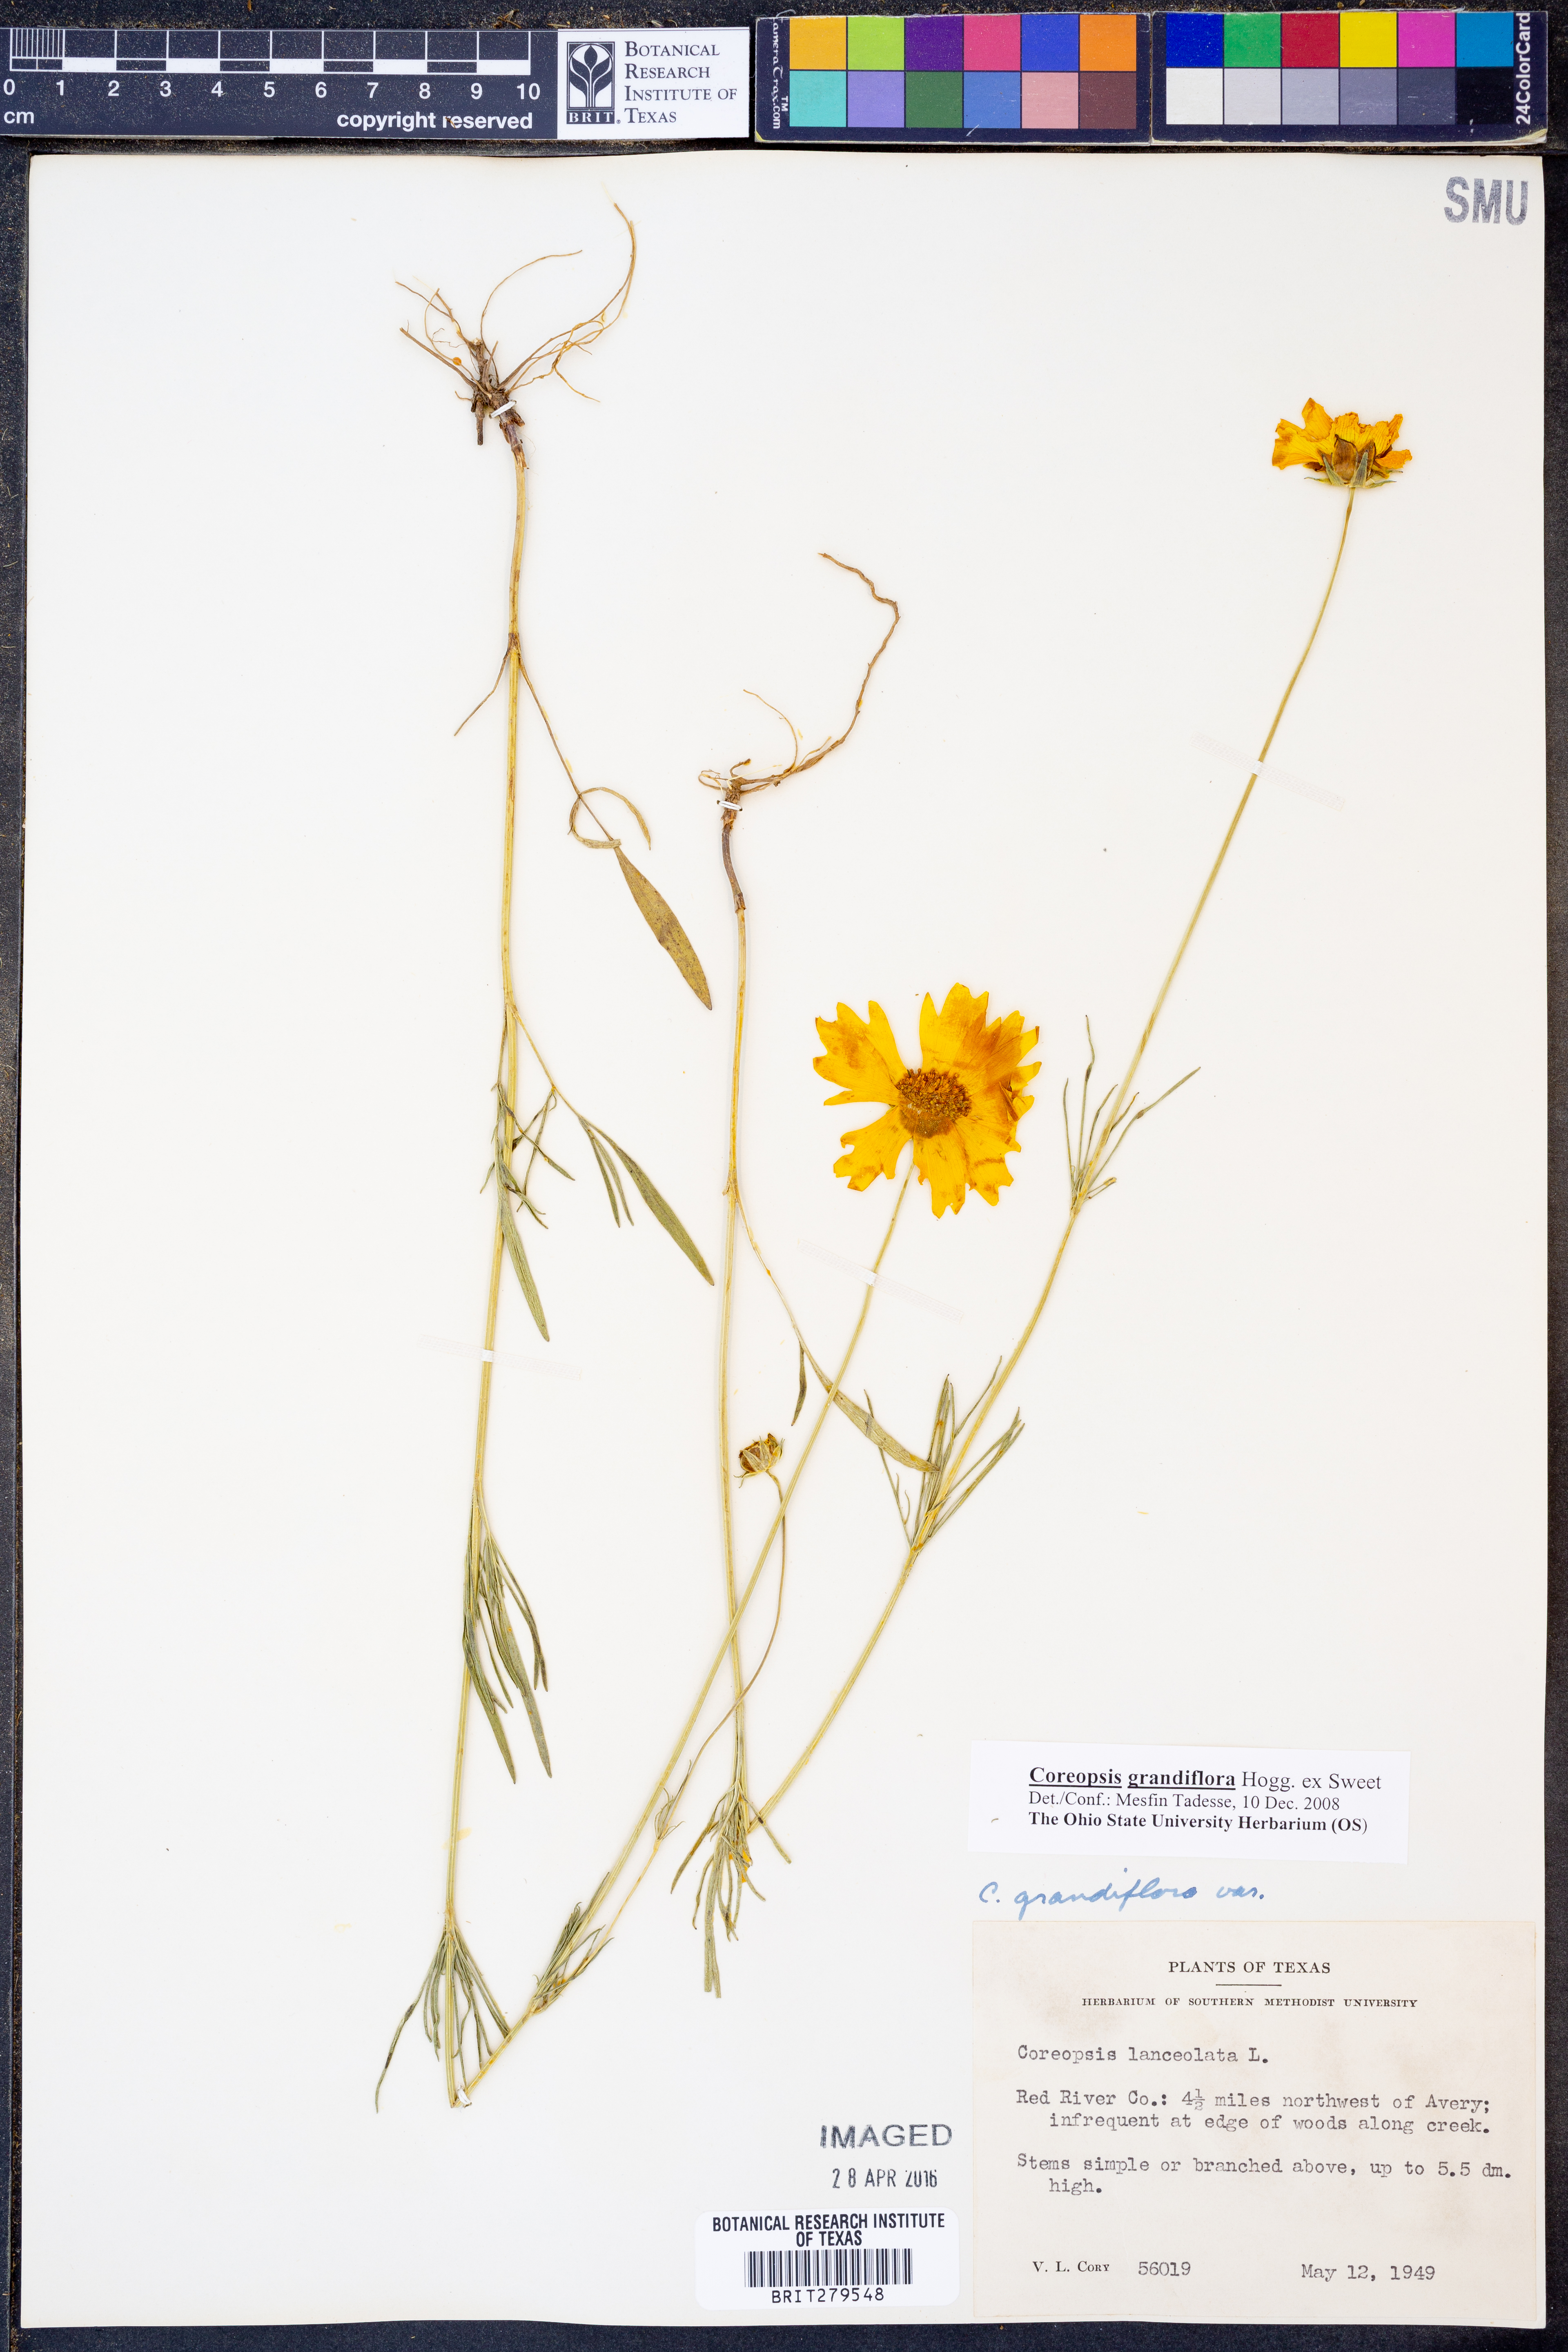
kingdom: Plantae
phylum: Tracheophyta
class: Magnoliopsida
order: Asterales
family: Asteraceae
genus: Coreopsis
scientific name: Coreopsis grandiflora
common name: Large-flowered tickseed
